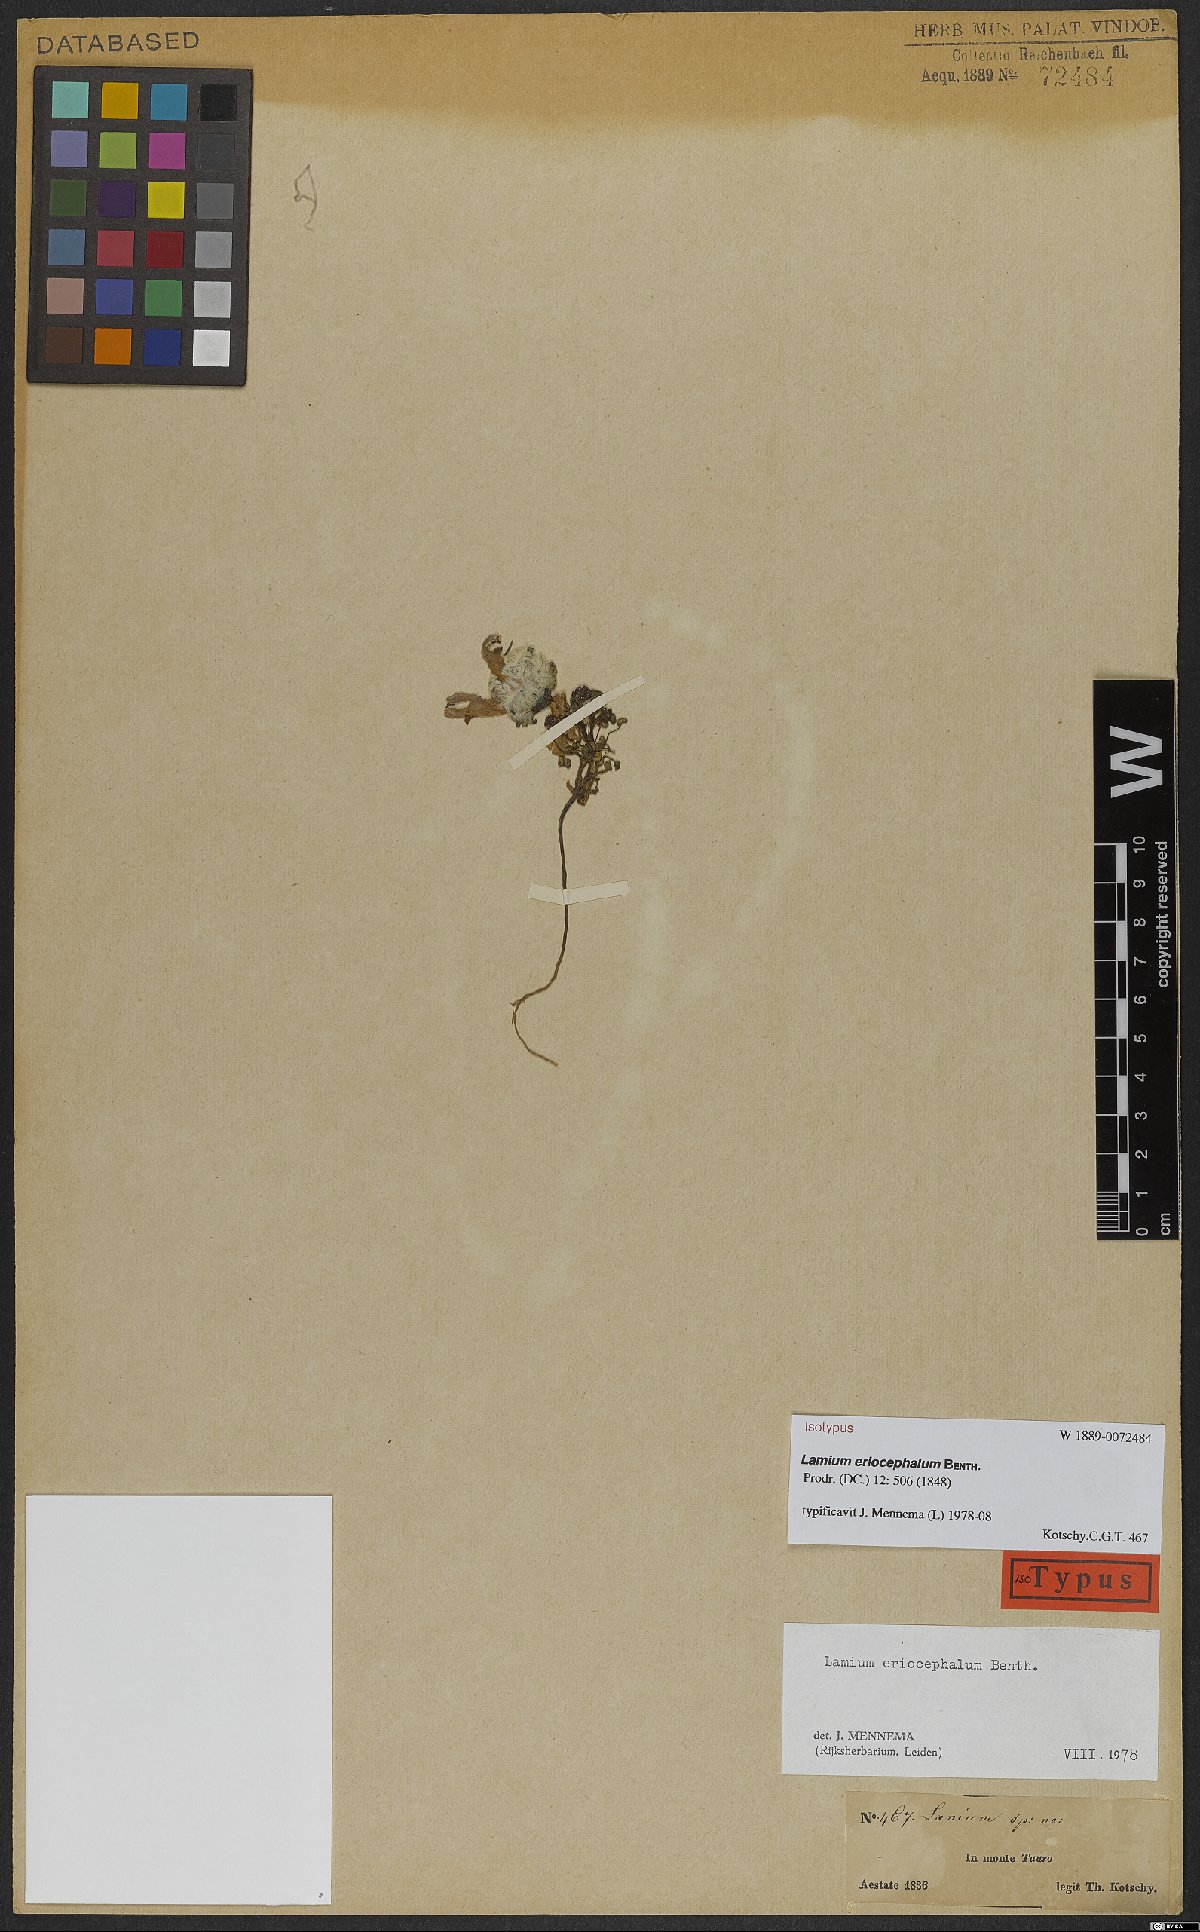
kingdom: Plantae
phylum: Tracheophyta
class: Magnoliopsida
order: Lamiales
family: Lamiaceae
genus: Lamium
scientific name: Lamium eriocephalum
